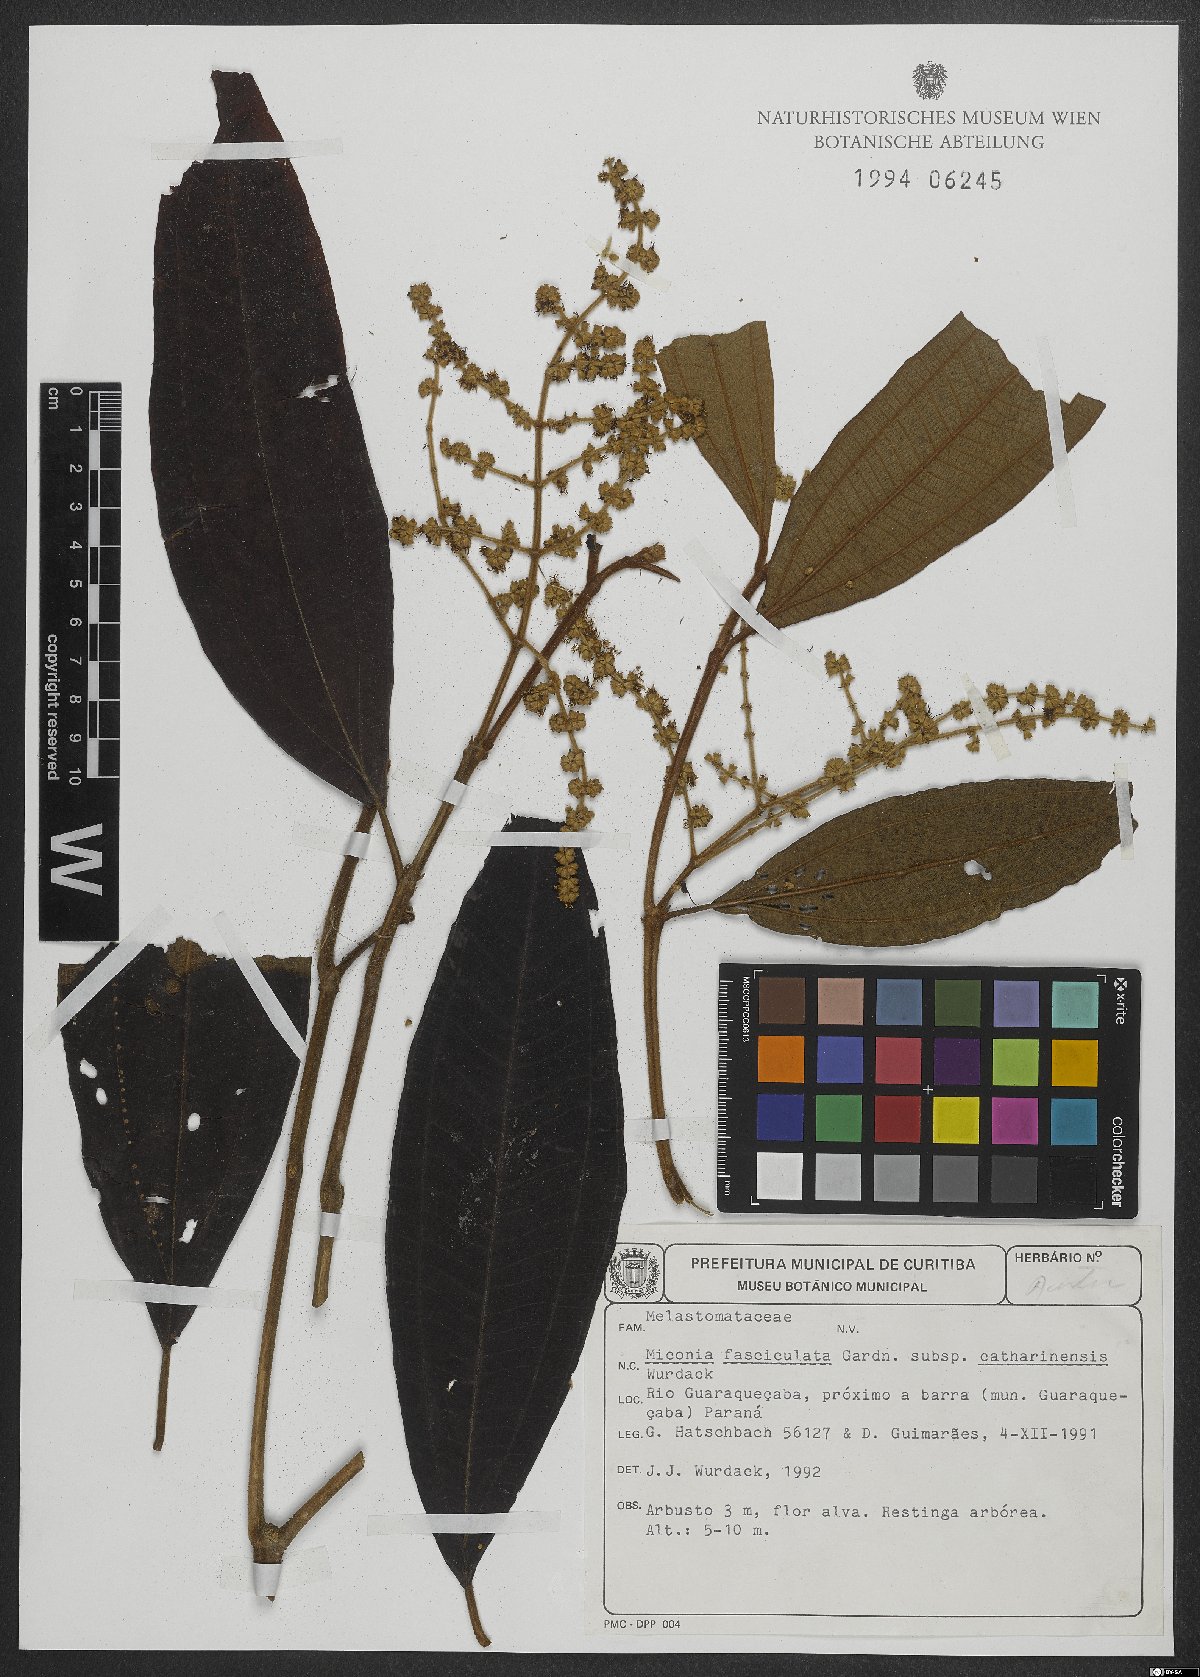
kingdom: Plantae
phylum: Tracheophyta
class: Magnoliopsida
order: Myrtales
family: Melastomataceae
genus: Miconia
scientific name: Miconia fasciculata
